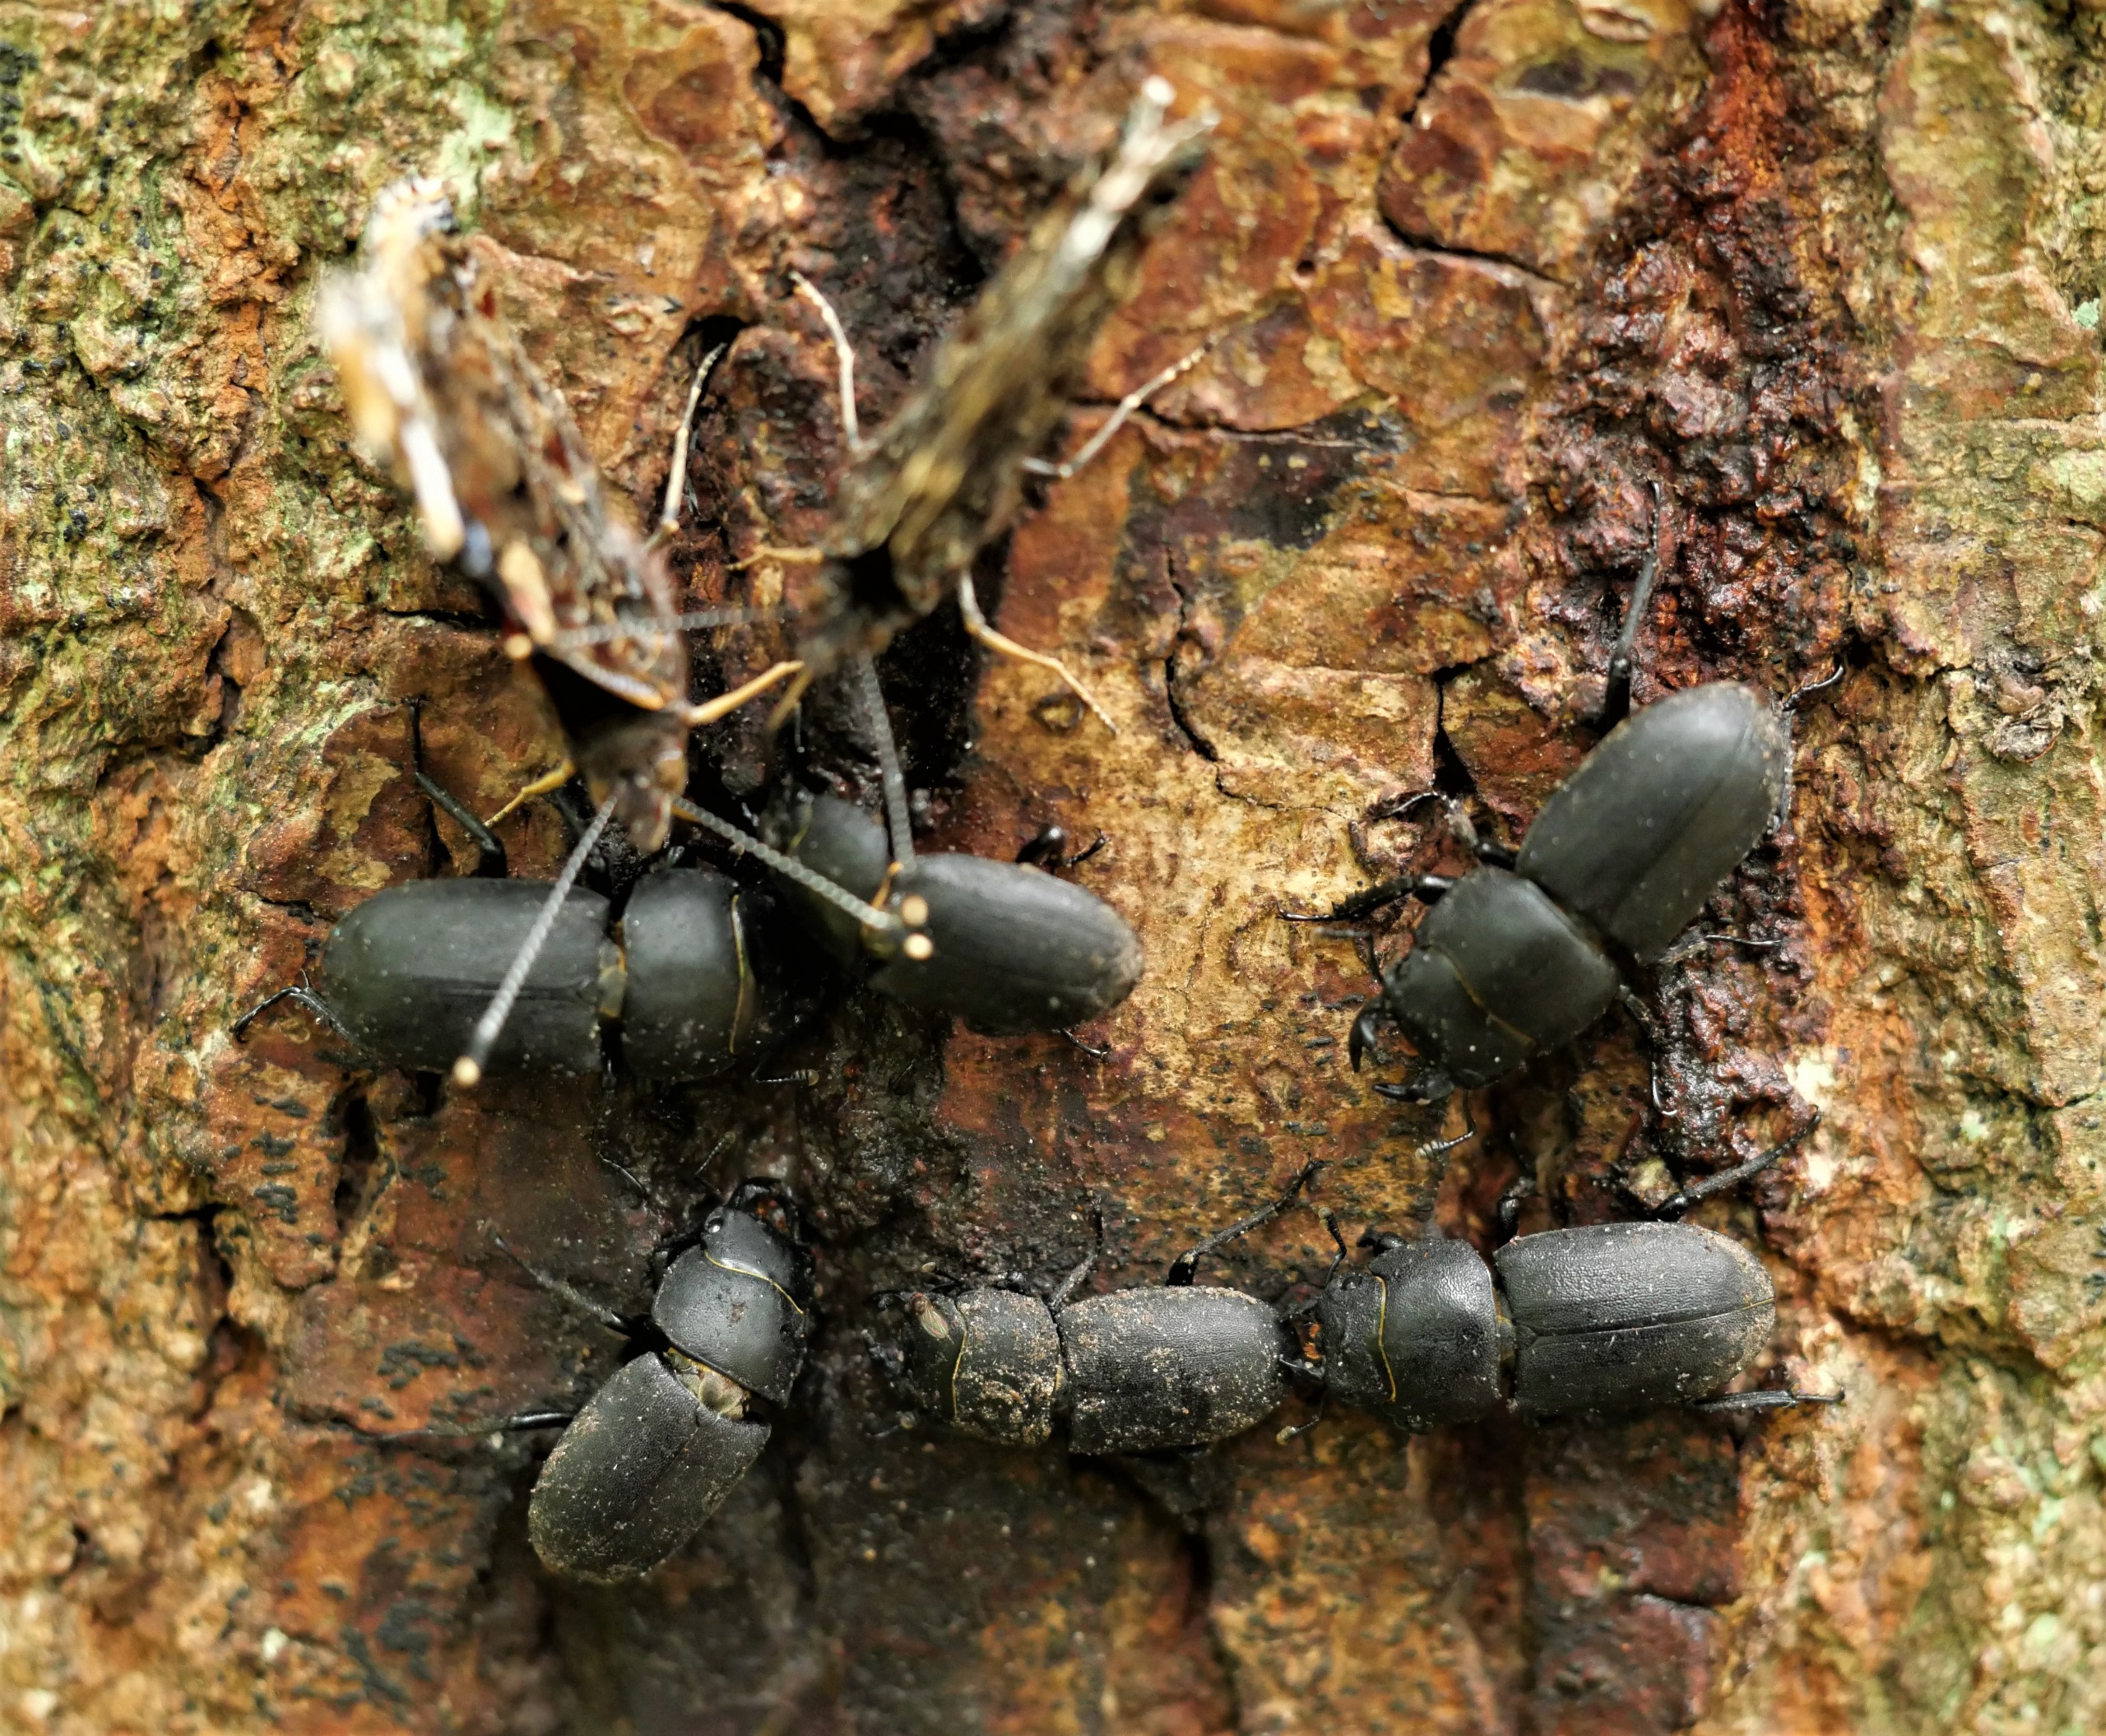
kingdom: Animalia
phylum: Arthropoda
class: Insecta
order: Coleoptera
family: Lucanidae
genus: Dorcus
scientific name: Dorcus parallelipipedus
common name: Bøghjort
